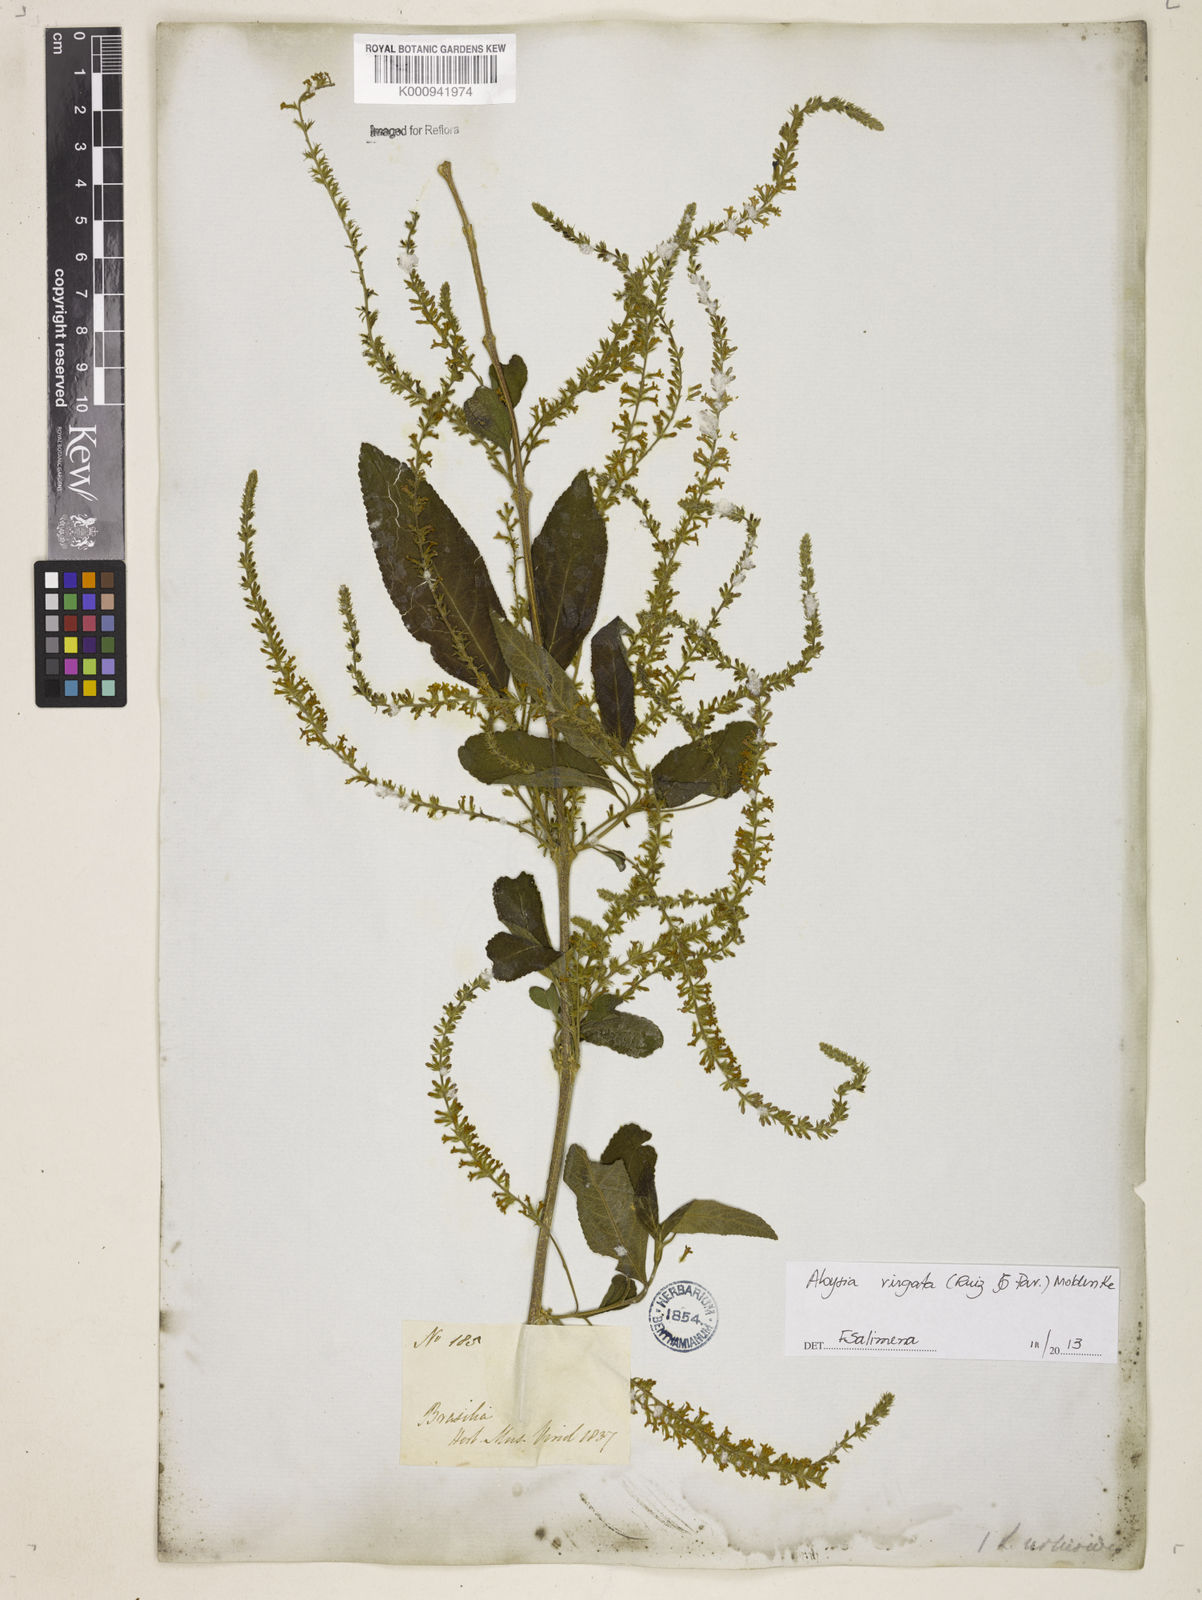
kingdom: Plantae
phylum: Tracheophyta
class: Magnoliopsida
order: Lamiales
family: Verbenaceae
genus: Aloysia
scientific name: Aloysia
